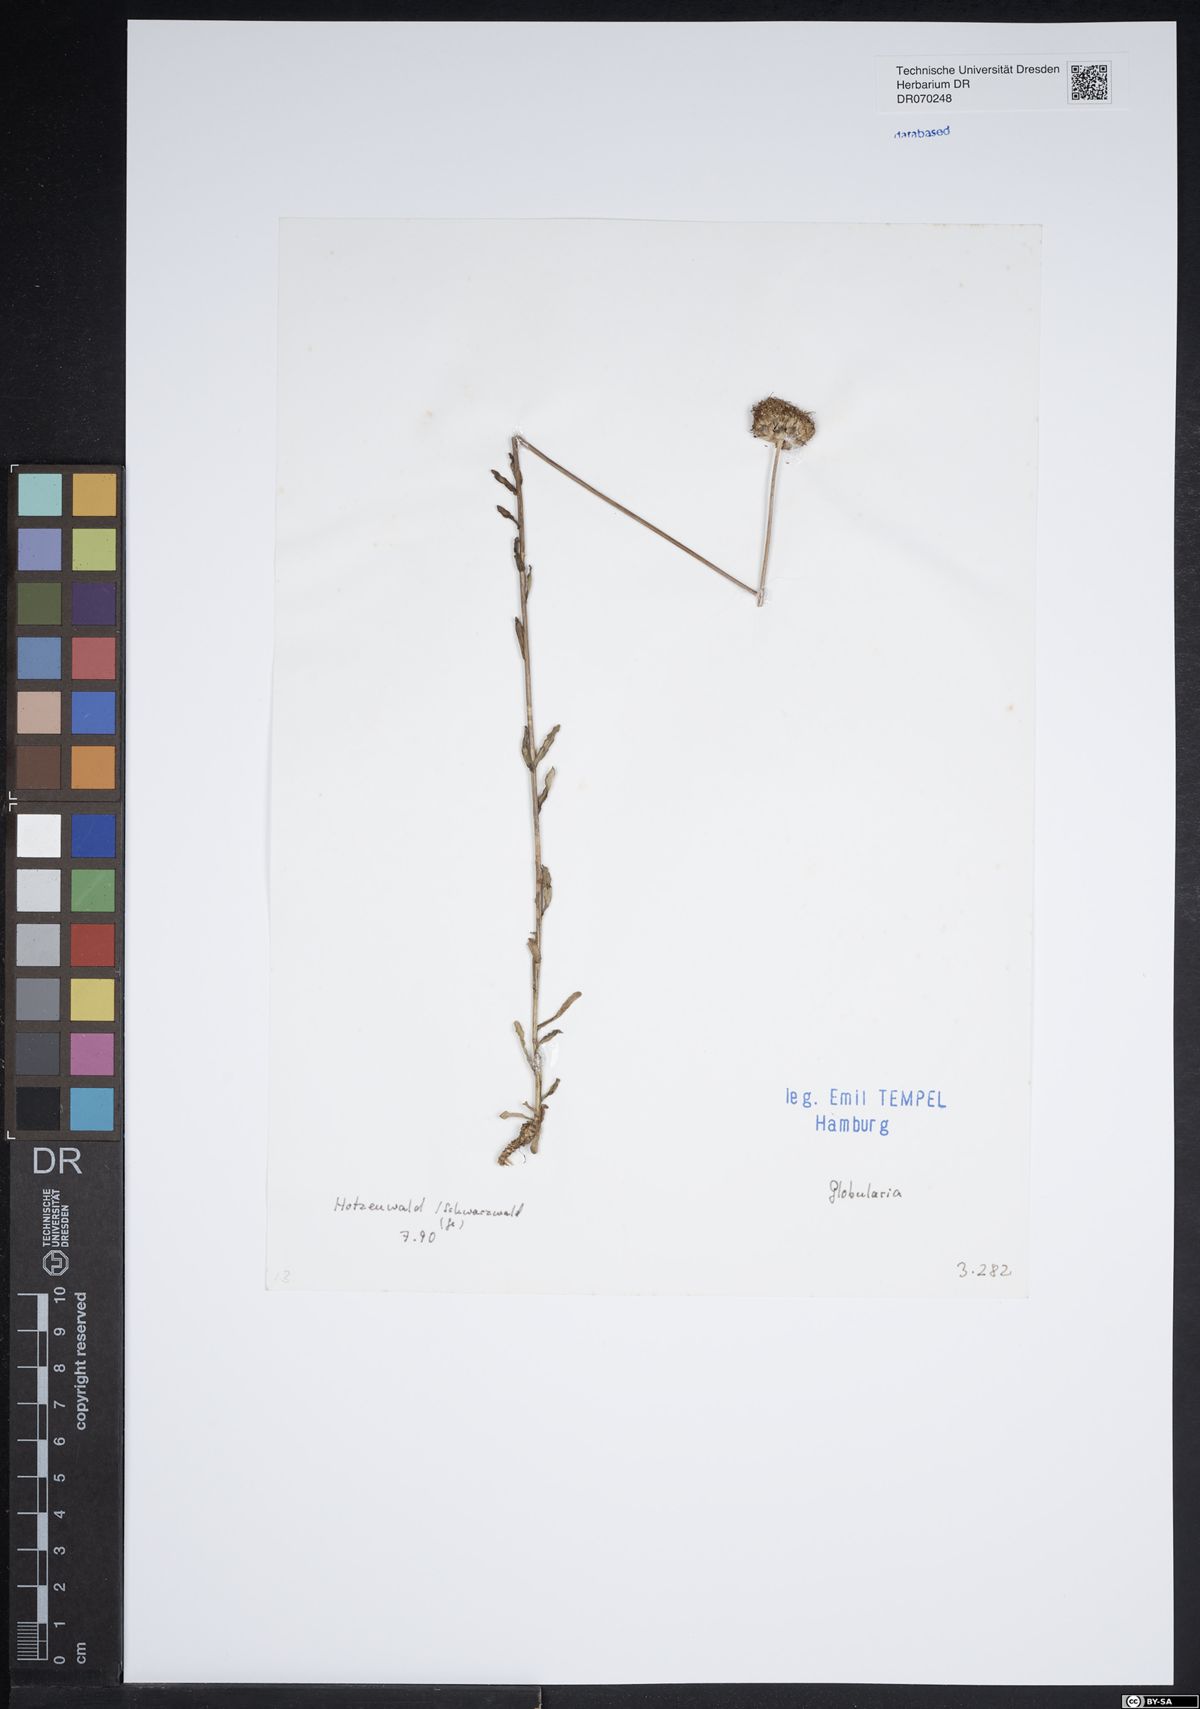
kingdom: Plantae
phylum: Tracheophyta
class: Magnoliopsida
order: Lamiales
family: Plantaginaceae
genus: Globularia
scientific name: Globularia
